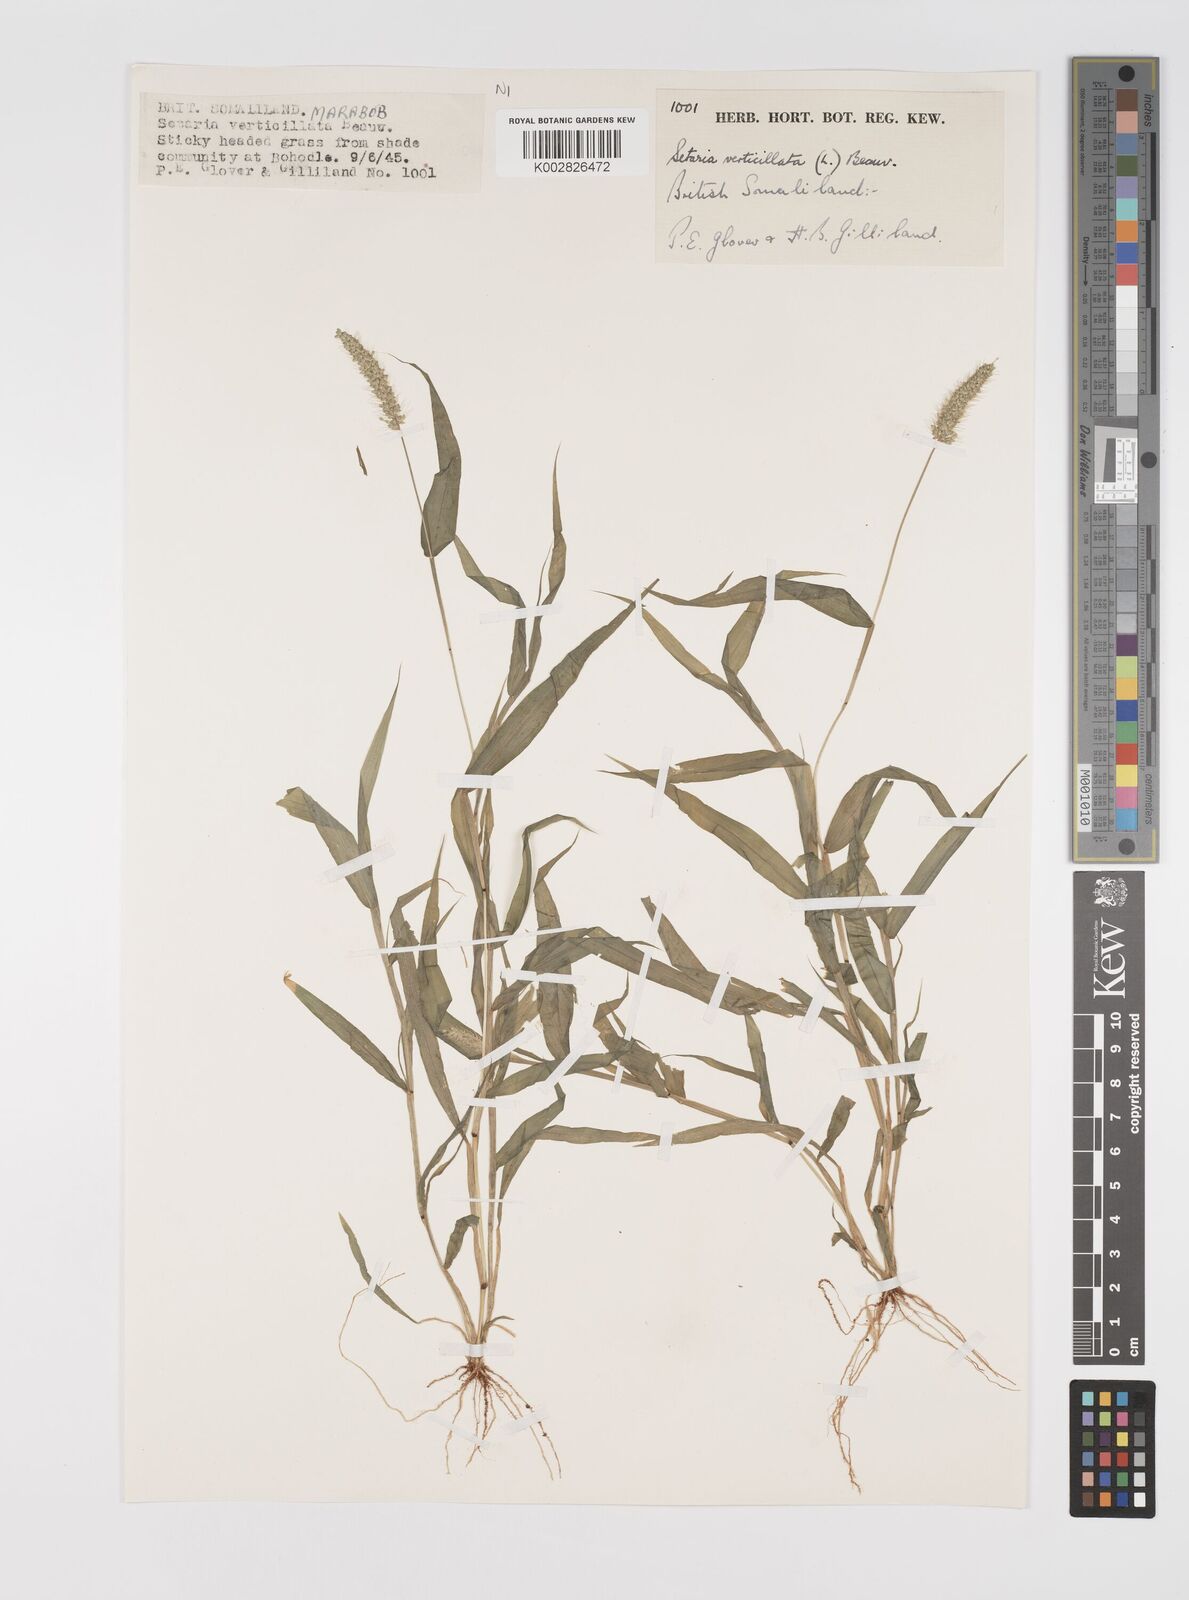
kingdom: Plantae
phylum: Tracheophyta
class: Liliopsida
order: Poales
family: Poaceae
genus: Setaria
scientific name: Setaria verticillata
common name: Hooked bristlegrass
